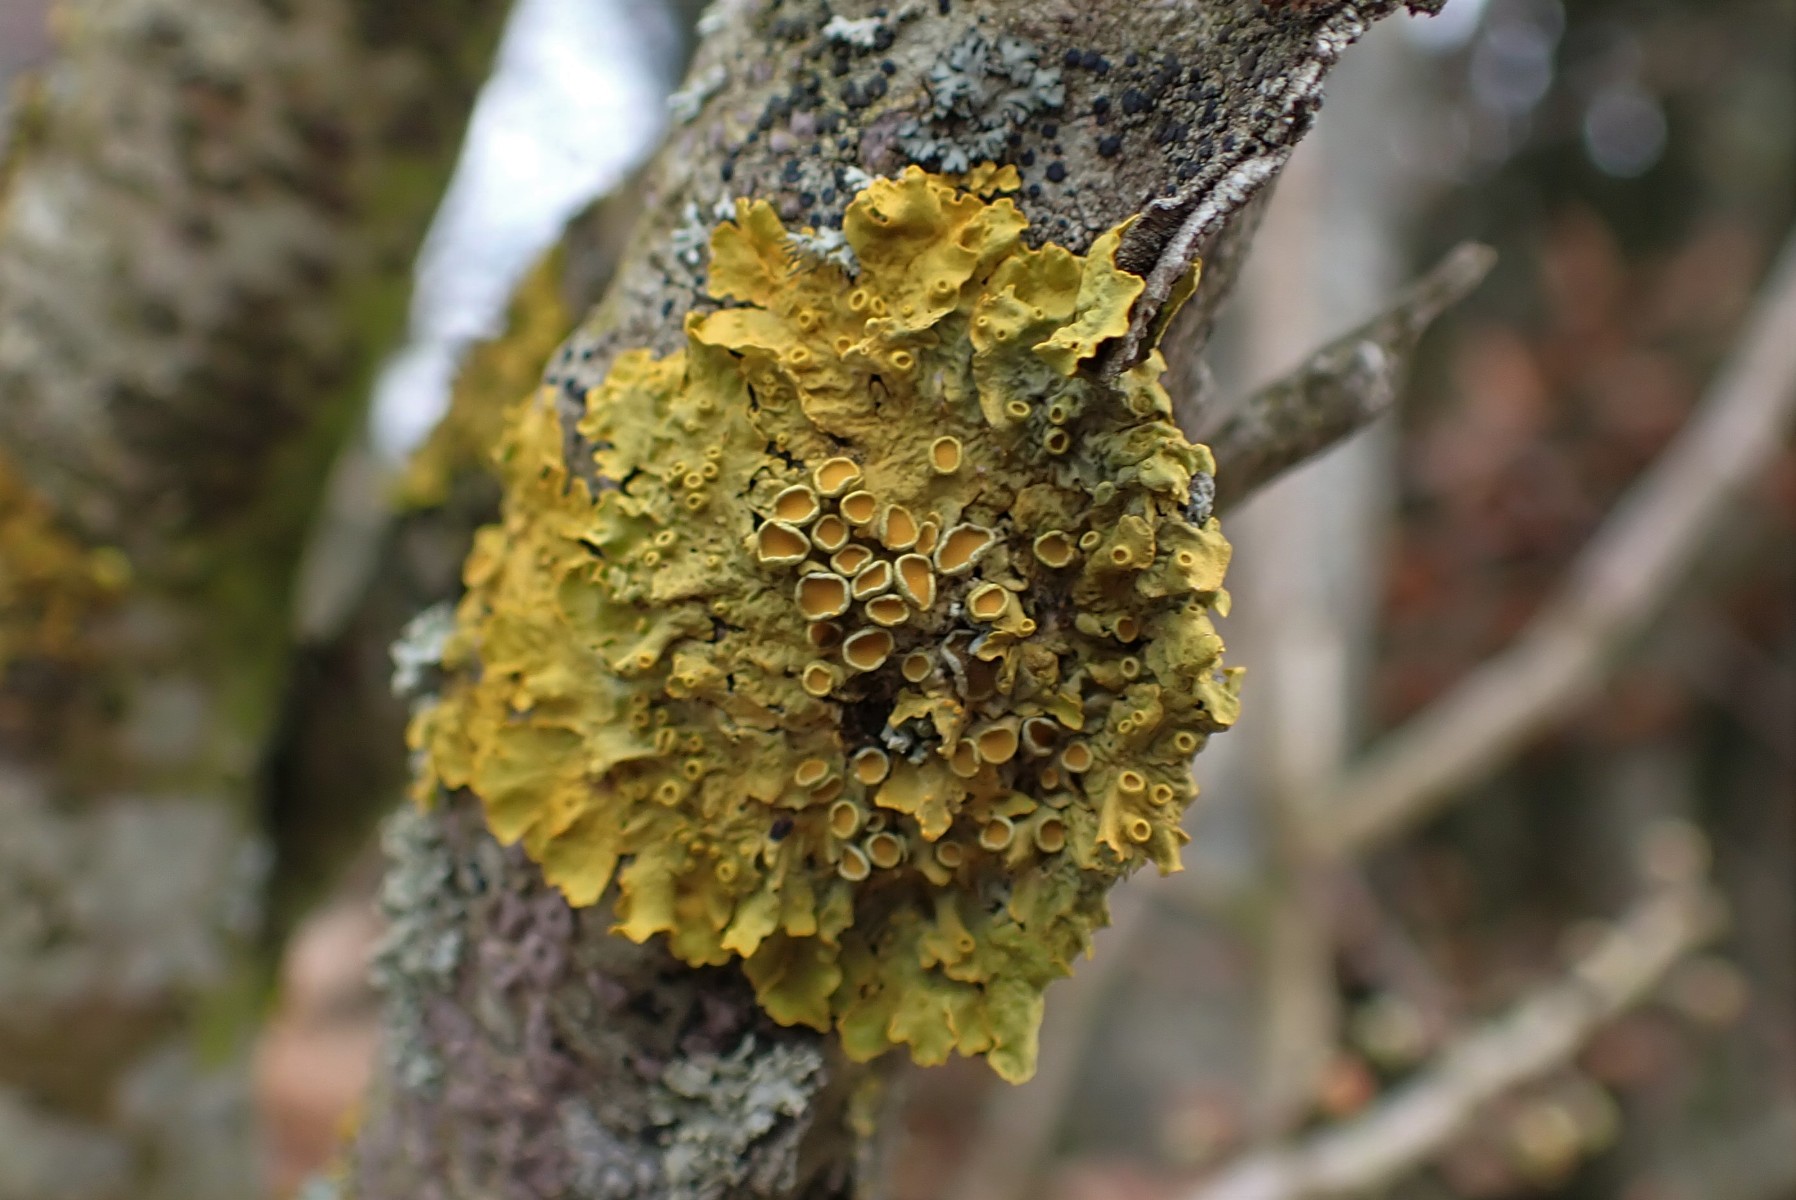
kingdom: Fungi
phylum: Ascomycota
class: Lecanoromycetes
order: Teloschistales
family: Teloschistaceae
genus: Xanthoria
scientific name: Xanthoria parietina
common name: almindelig væggelav
